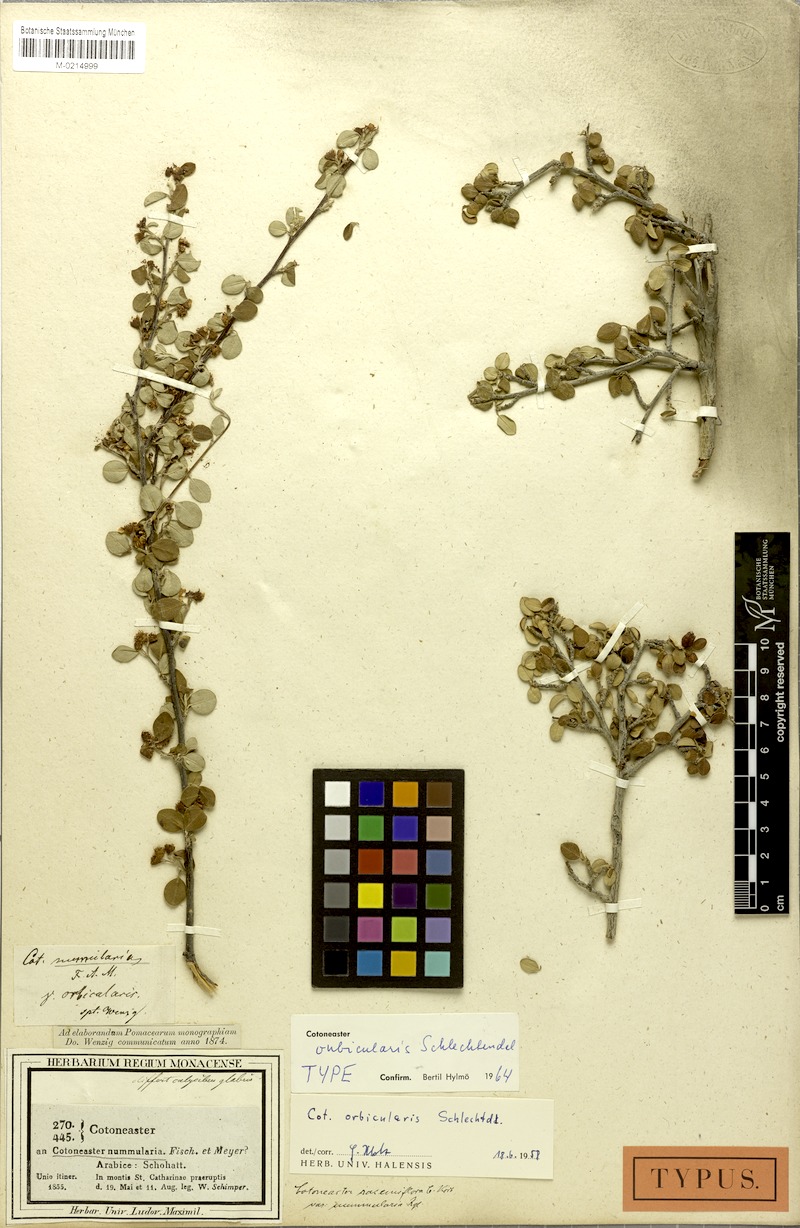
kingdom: Plantae
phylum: Tracheophyta
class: Magnoliopsida
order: Rosales
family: Rosaceae
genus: Cotoneaster
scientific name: Cotoneaster orbicularis
